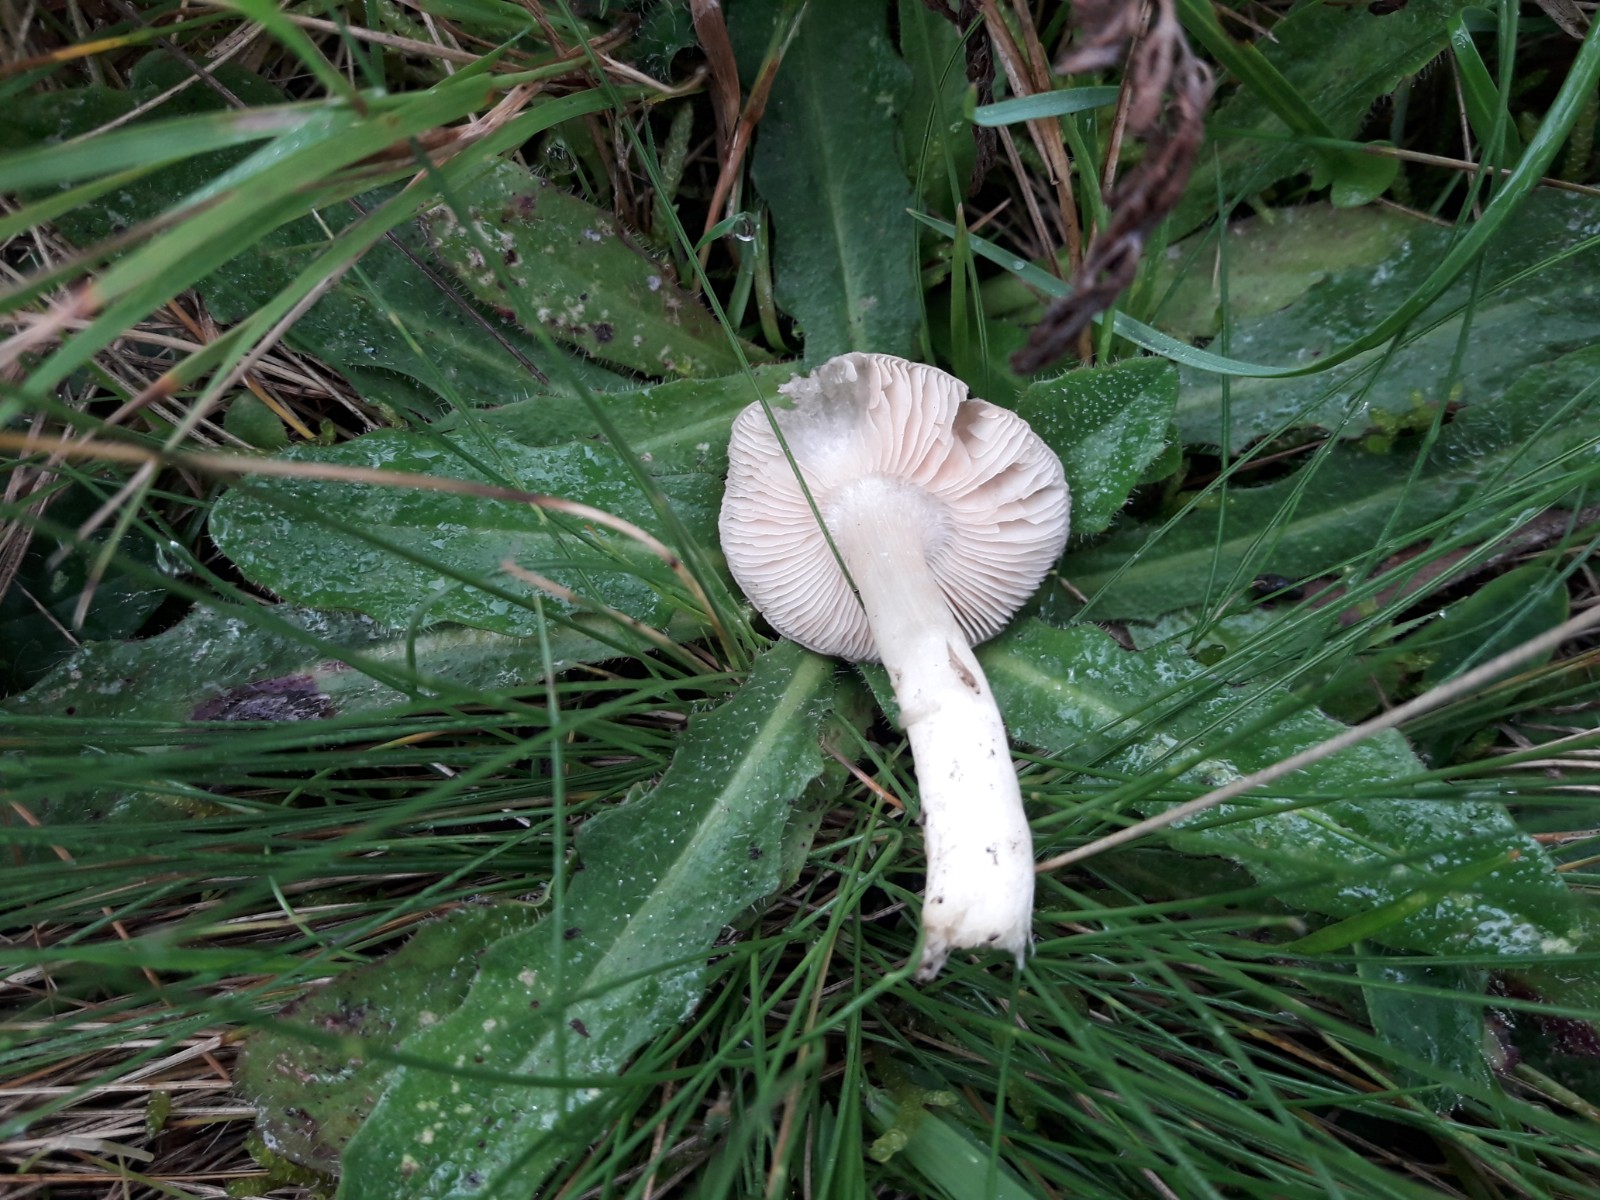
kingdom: Fungi
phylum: Basidiomycota
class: Agaricomycetes
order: Agaricales
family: Entolomataceae
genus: Entoloma
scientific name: Entoloma prunuloides
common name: mel-rødblad
